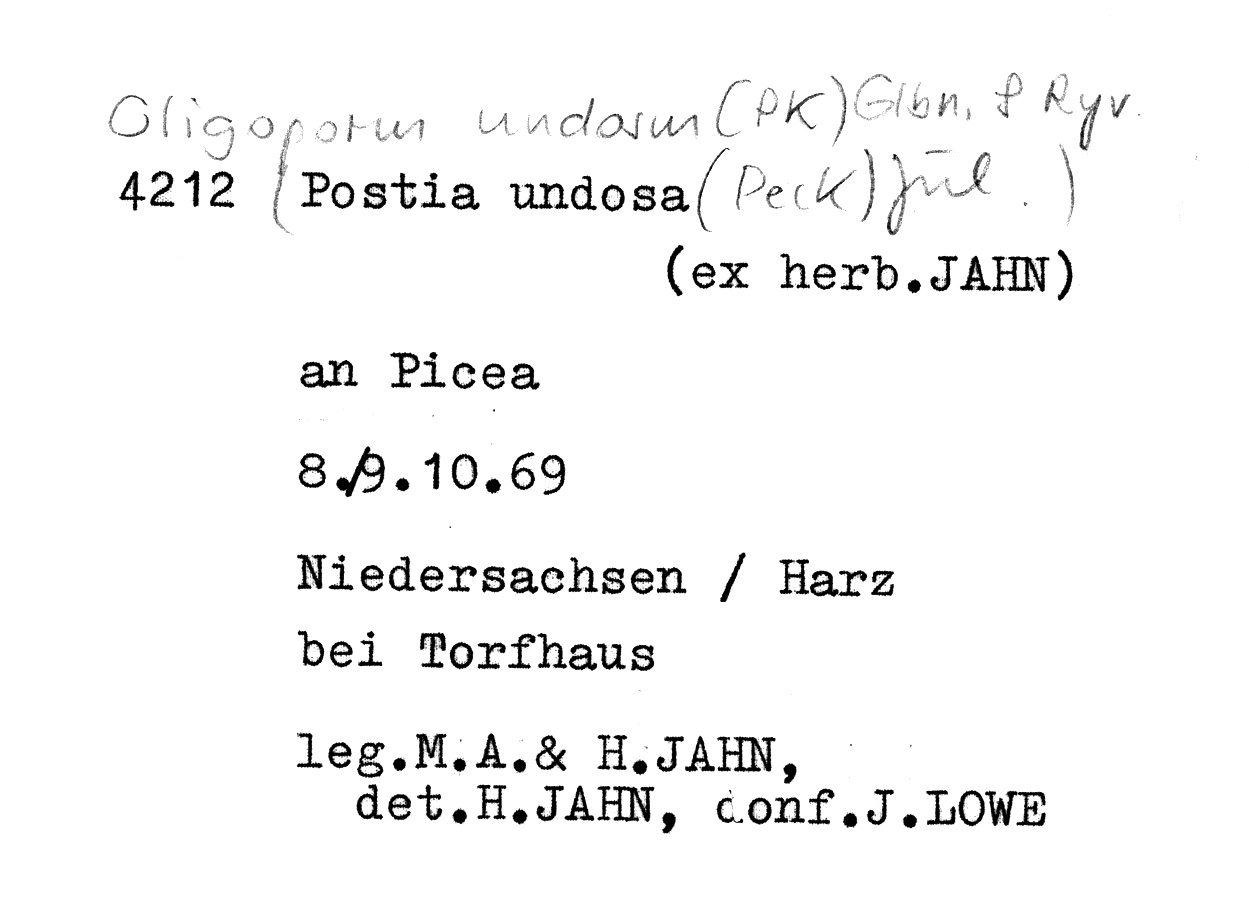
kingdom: Fungi
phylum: Basidiomycota
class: Agaricomycetes
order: Polyporales
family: Dacryobolaceae
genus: Osteina
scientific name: Osteina undosa
